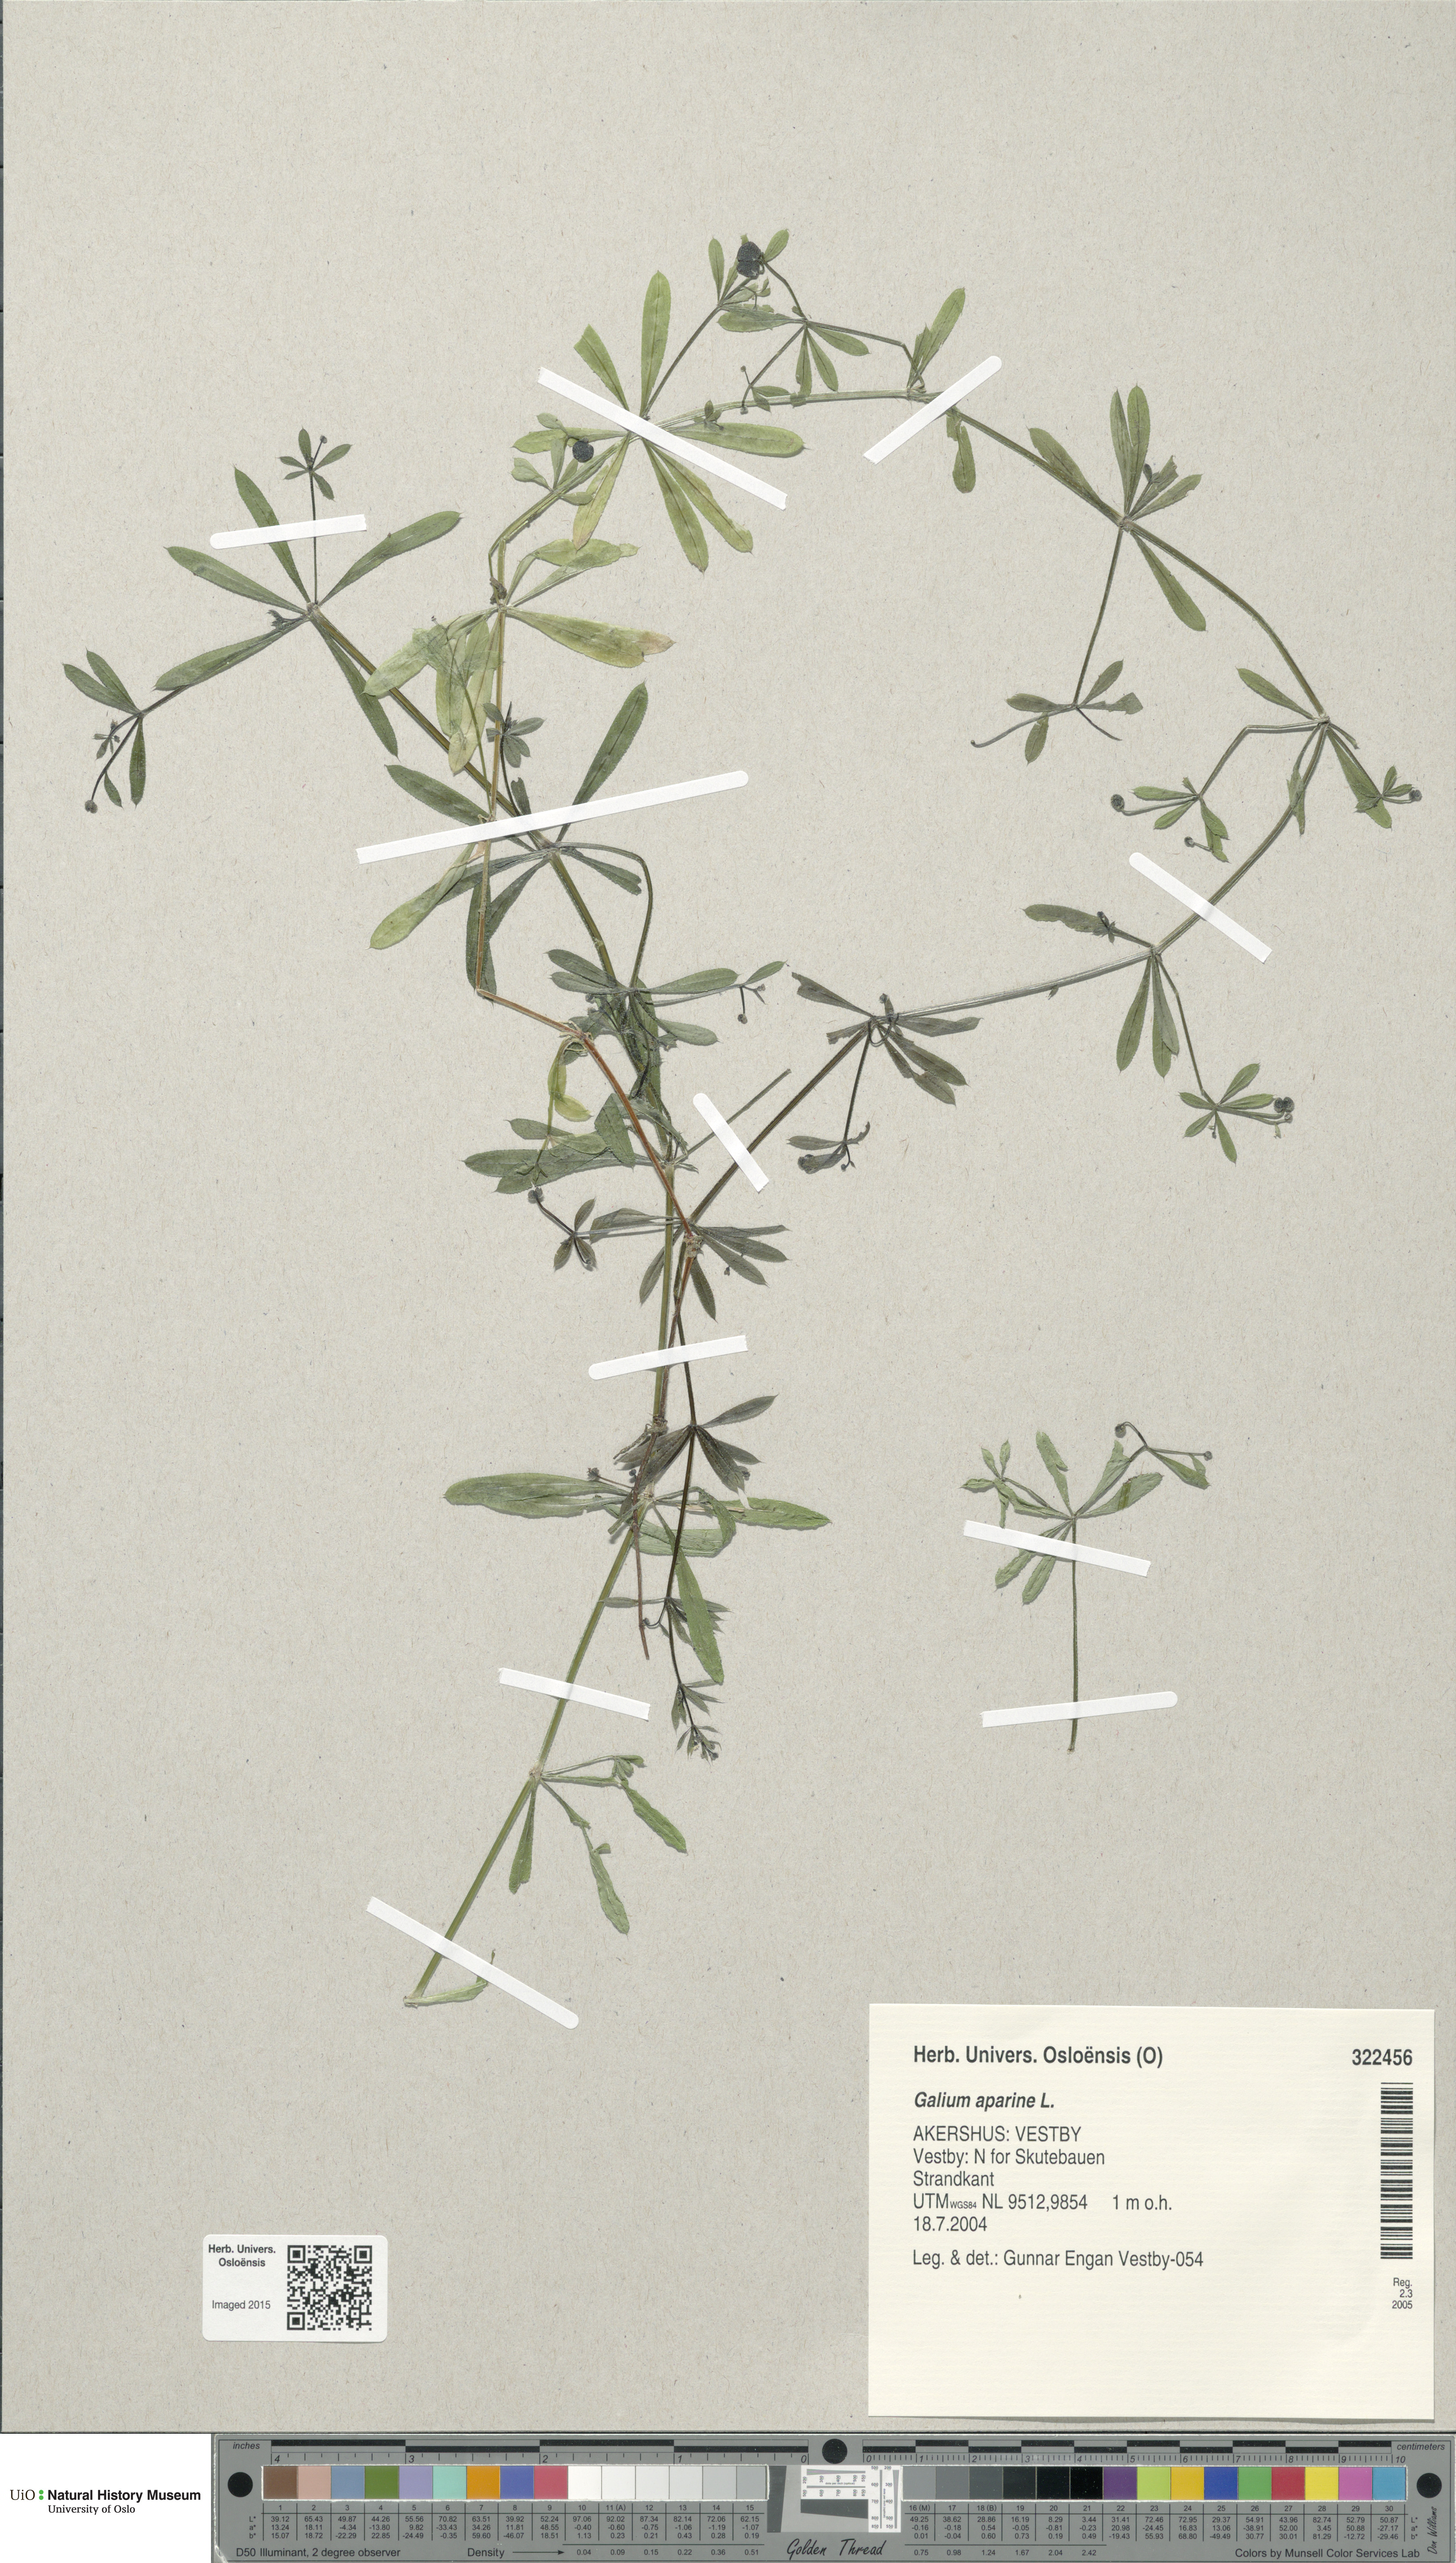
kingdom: Plantae
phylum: Tracheophyta
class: Magnoliopsida
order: Gentianales
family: Rubiaceae
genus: Galium
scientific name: Galium aparine
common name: Cleavers
